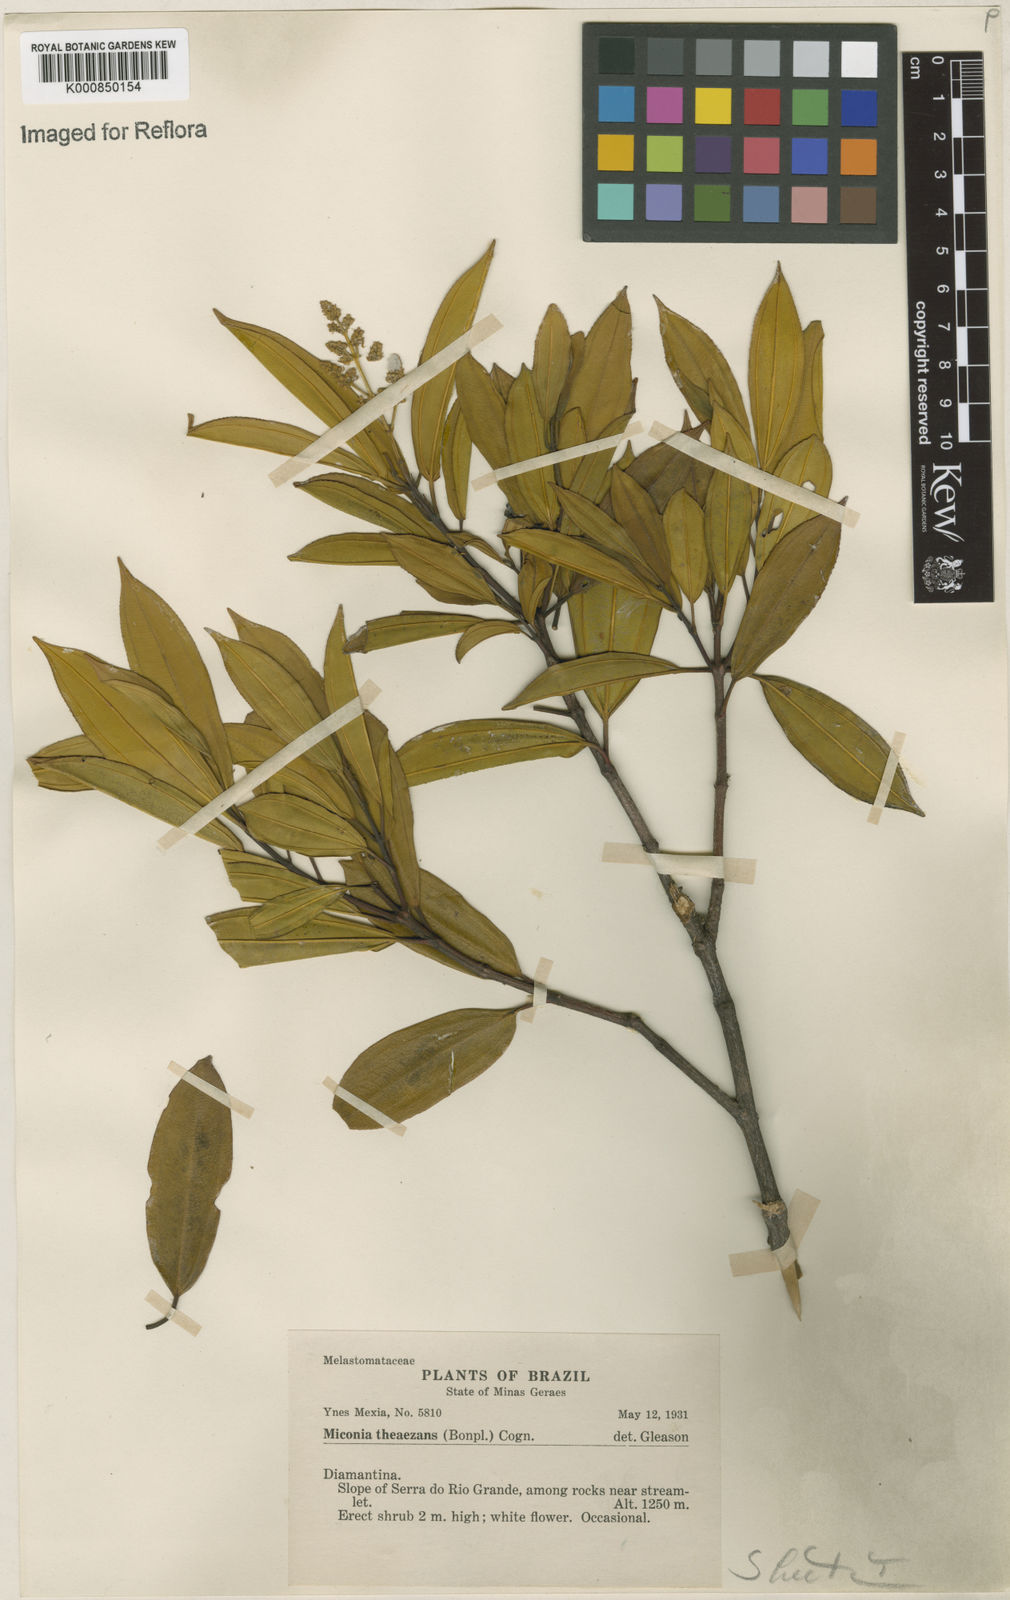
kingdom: Plantae
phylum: Tracheophyta
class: Magnoliopsida
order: Myrtales
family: Melastomataceae
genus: Miconia
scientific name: Miconia
